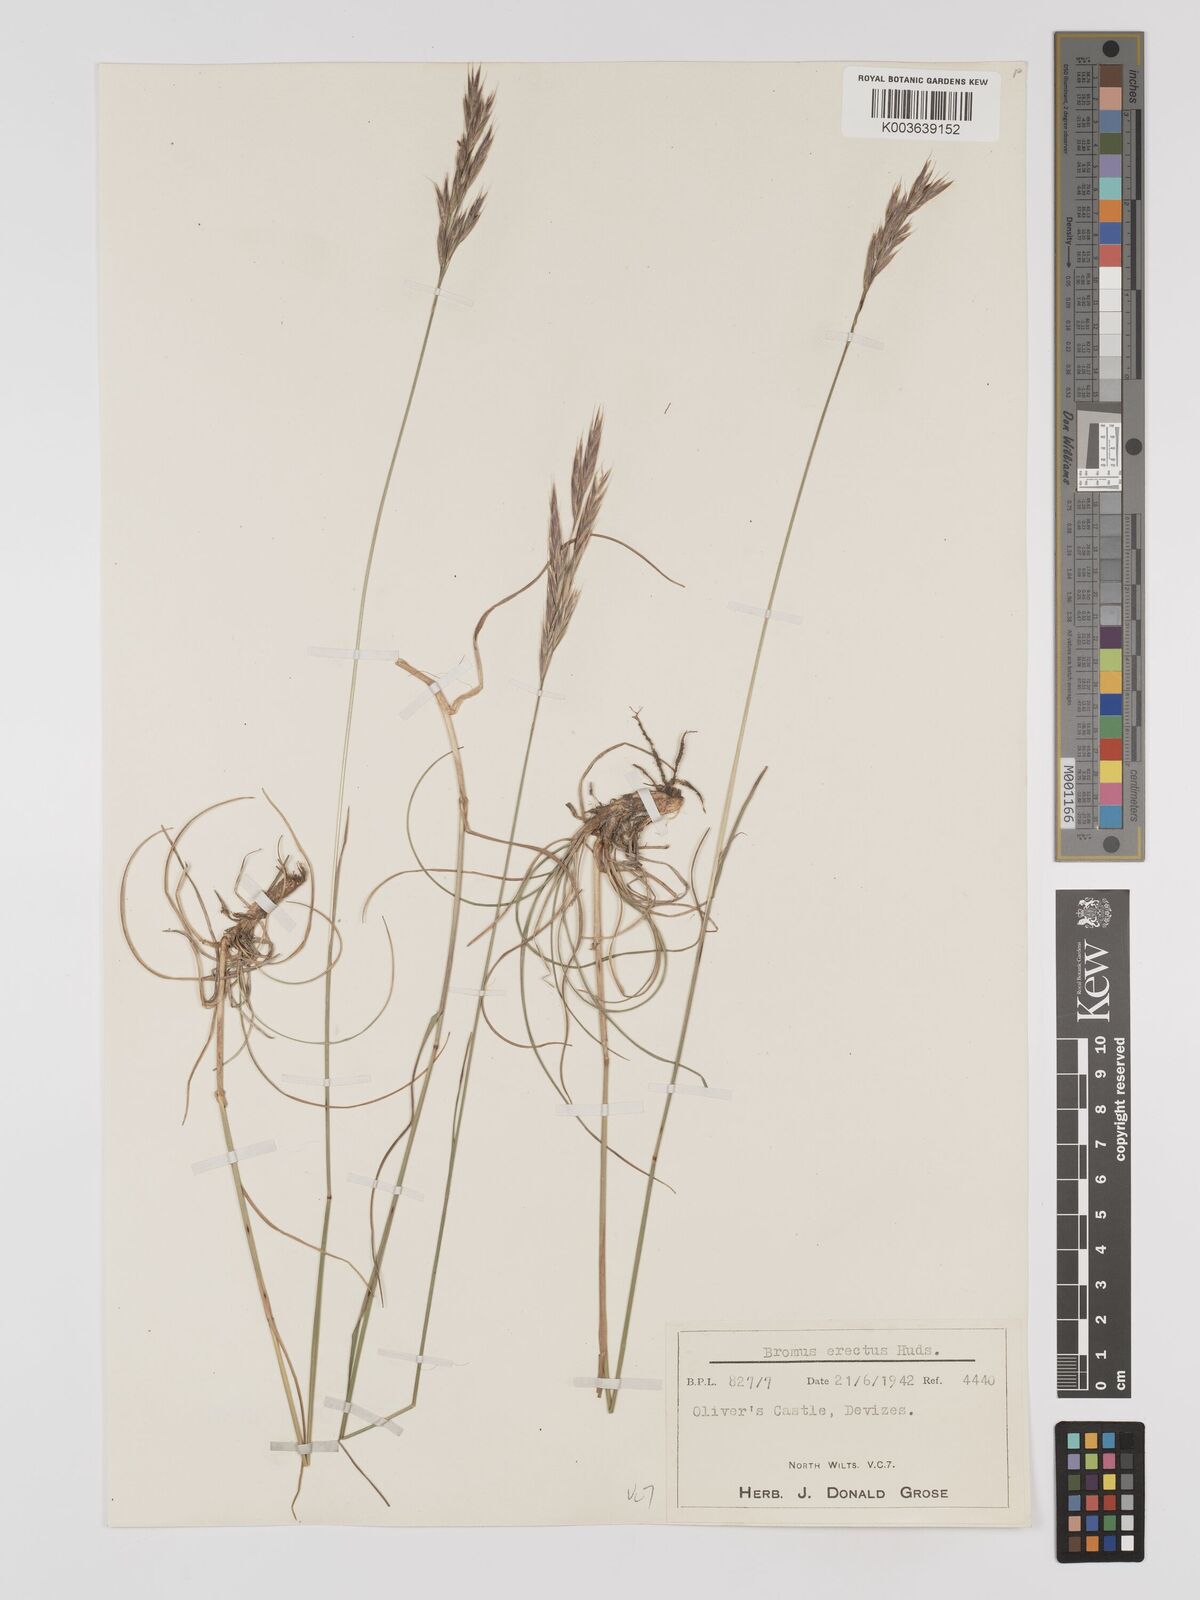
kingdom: Plantae
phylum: Tracheophyta
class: Liliopsida
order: Poales
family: Poaceae
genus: Bromus
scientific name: Bromus erectus
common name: Erect brome
